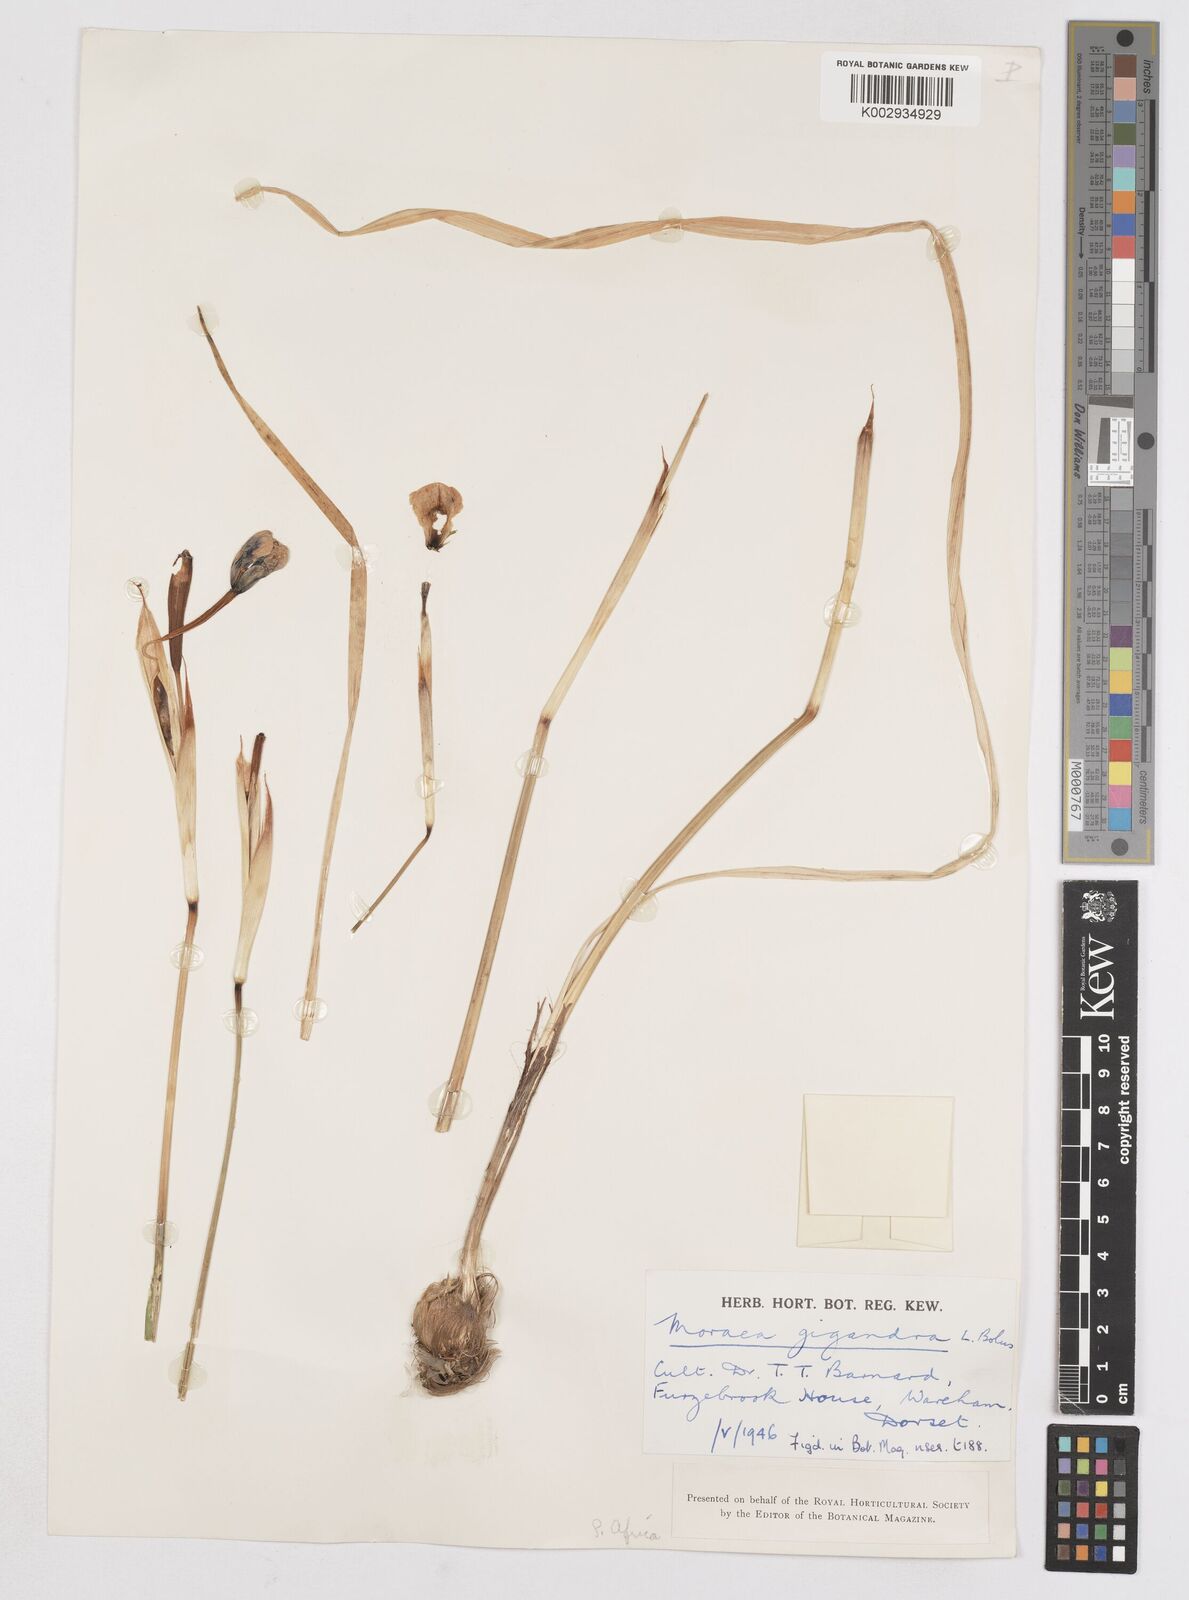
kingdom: Plantae
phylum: Tracheophyta
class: Liliopsida
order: Asparagales
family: Iridaceae
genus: Moraea
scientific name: Moraea gigandra
